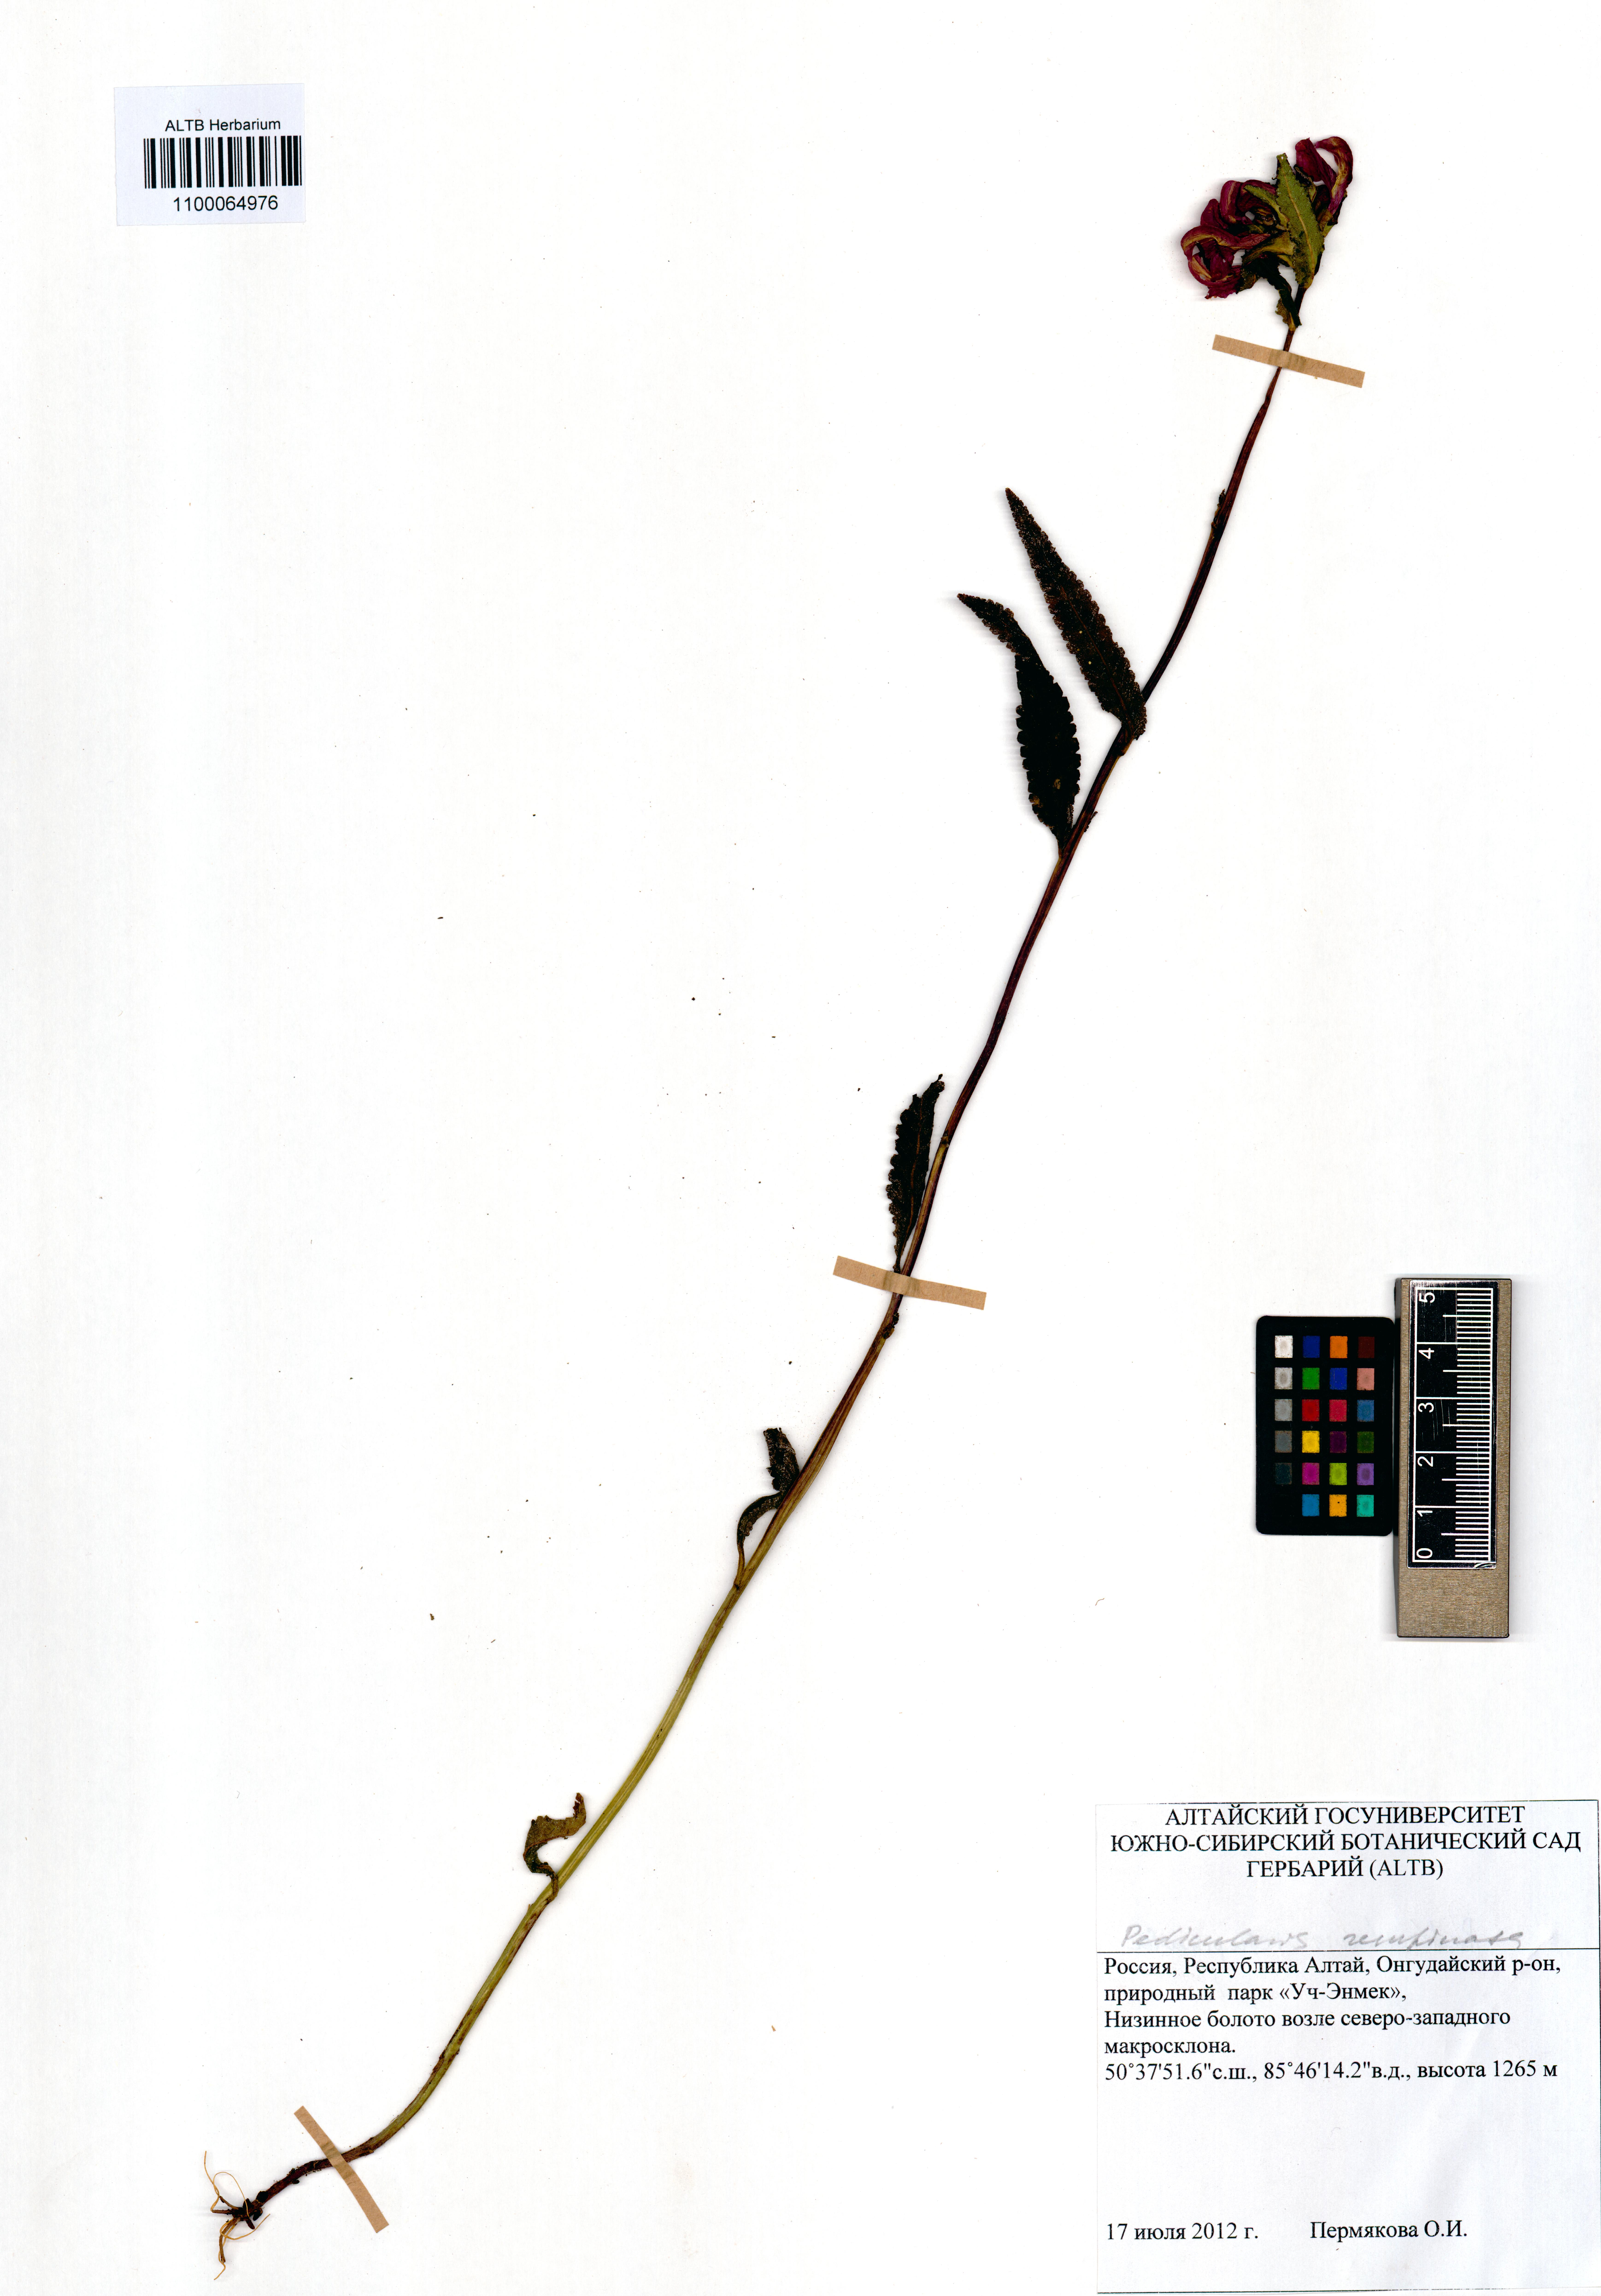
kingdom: Plantae
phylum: Tracheophyta
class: Magnoliopsida
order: Lamiales
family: Orobanchaceae
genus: Pedicularis
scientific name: Pedicularis resupinata
